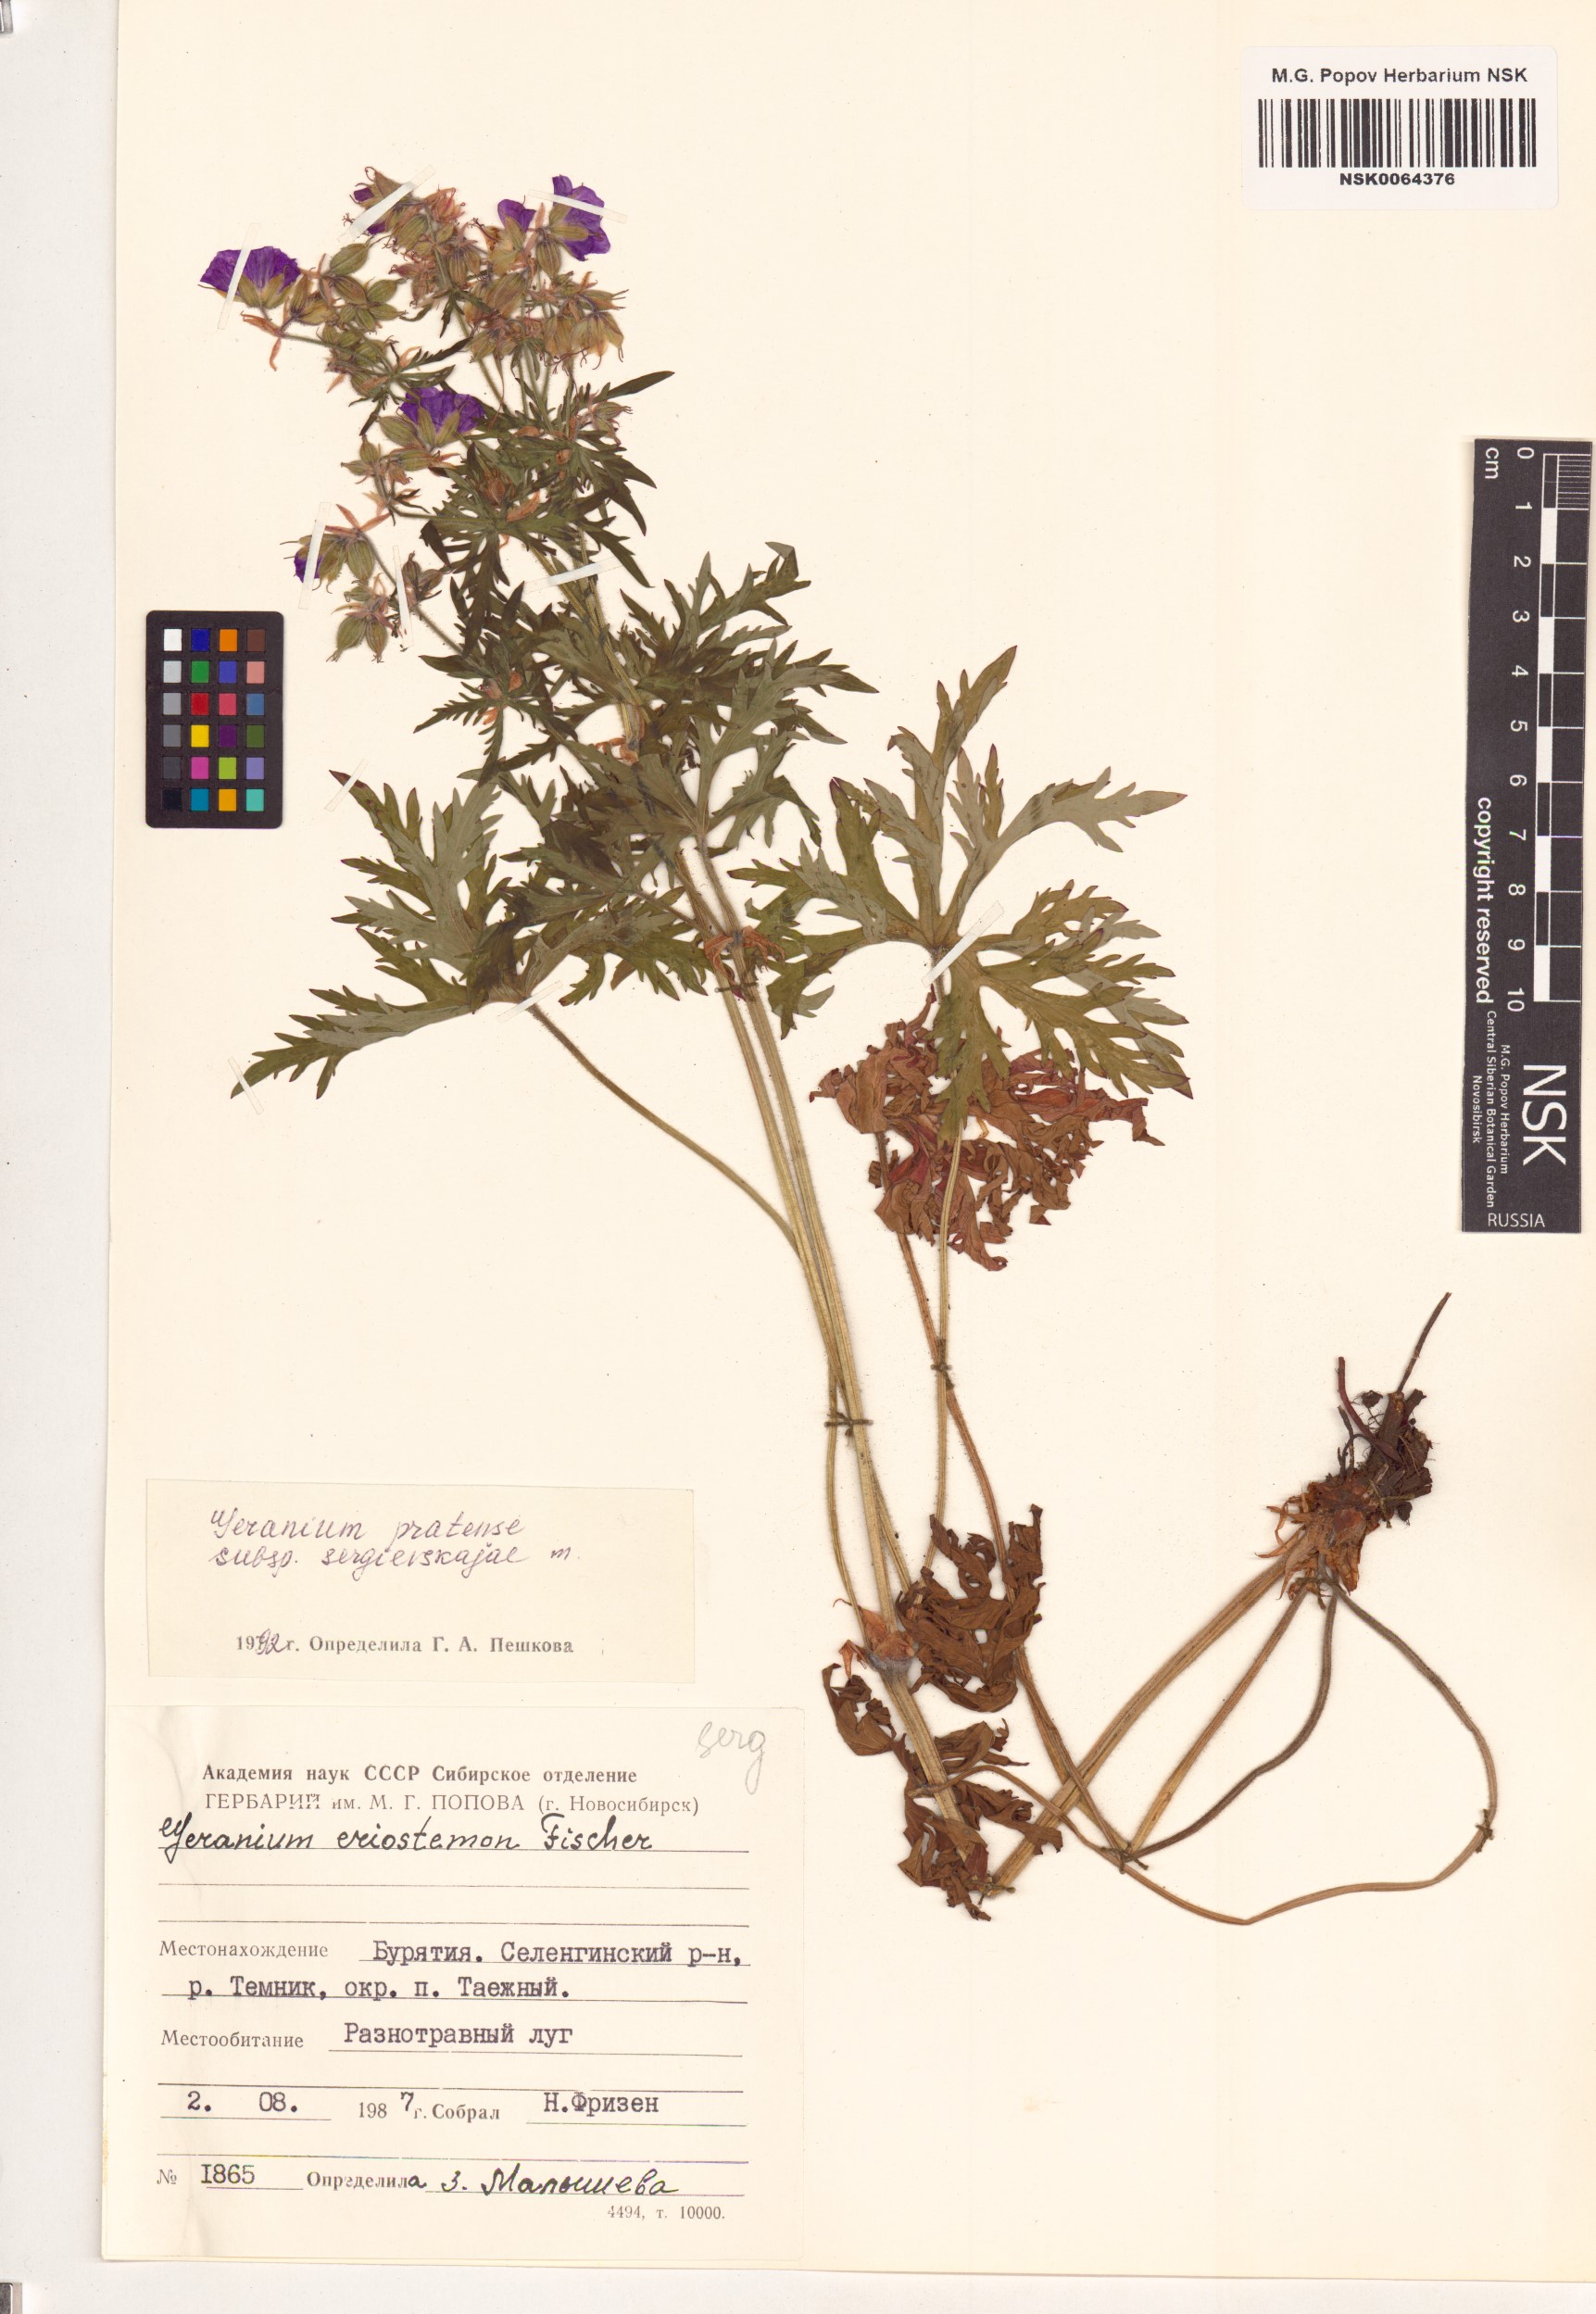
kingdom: Plantae
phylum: Tracheophyta
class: Magnoliopsida
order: Geraniales
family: Geraniaceae
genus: Geranium
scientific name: Geranium pratense
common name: Meadow crane's-bill
